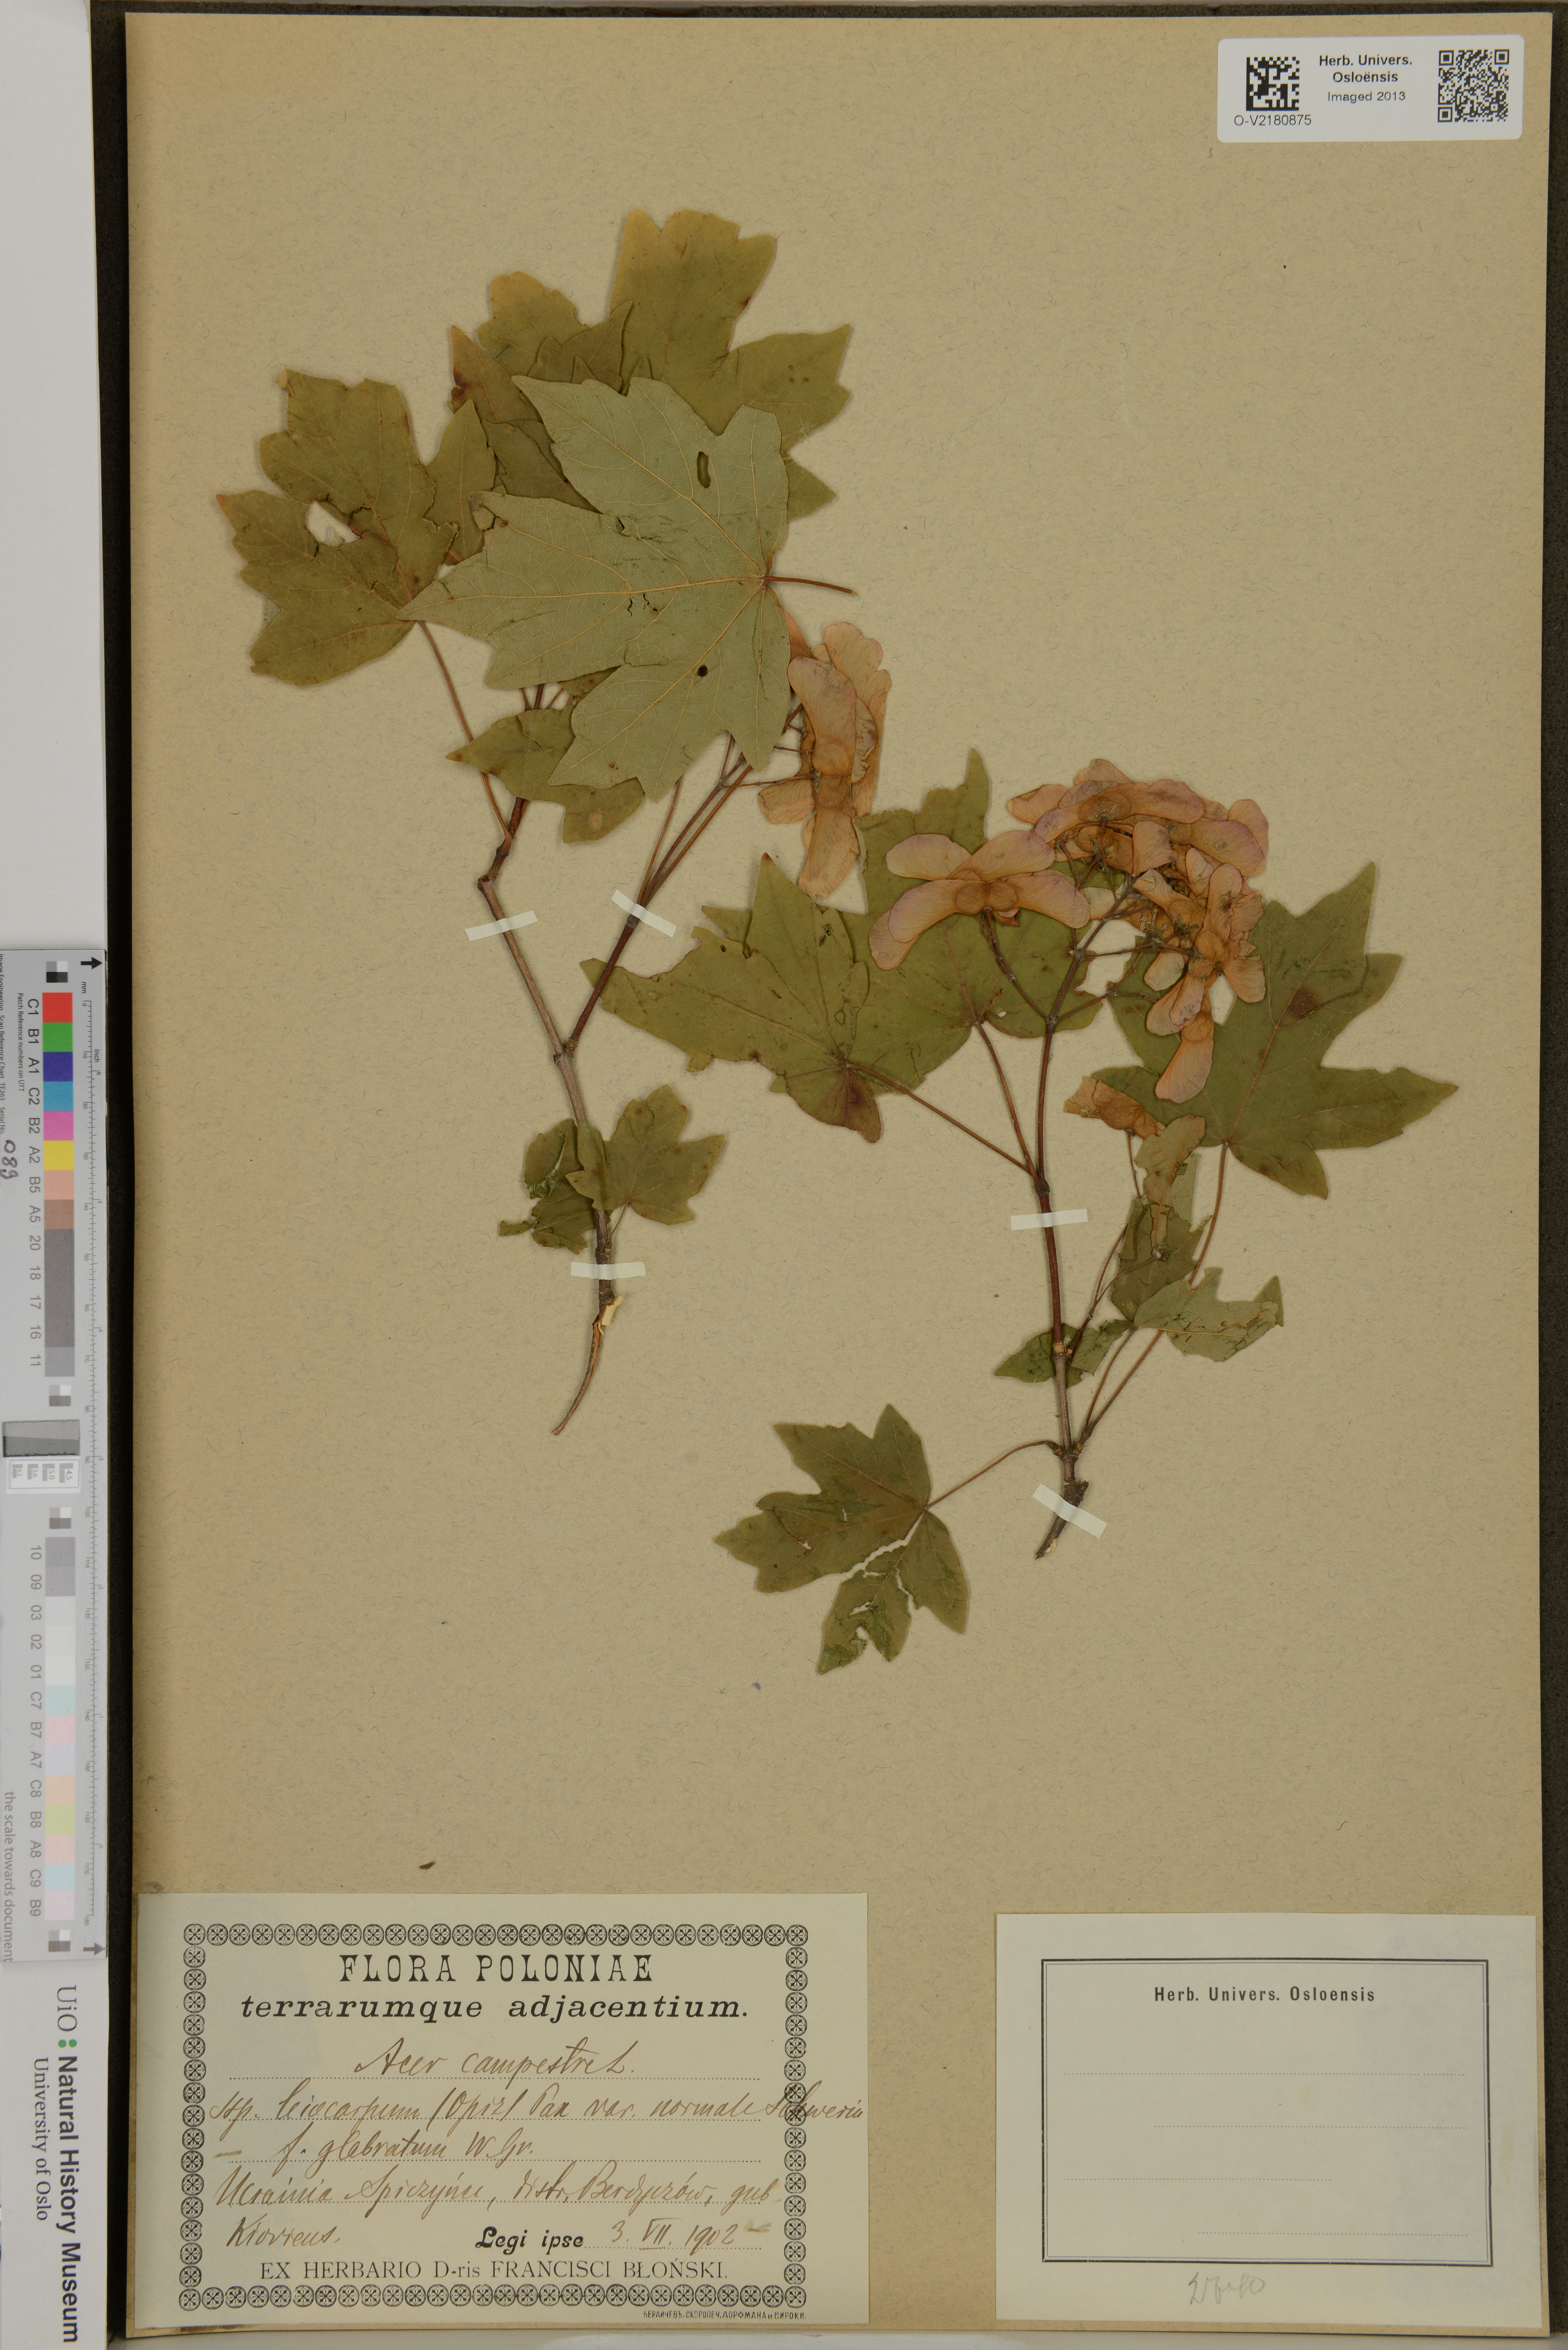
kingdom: Plantae
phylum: Tracheophyta
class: Magnoliopsida
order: Sapindales
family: Sapindaceae
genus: Acer
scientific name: Acer campestre
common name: Field maple
